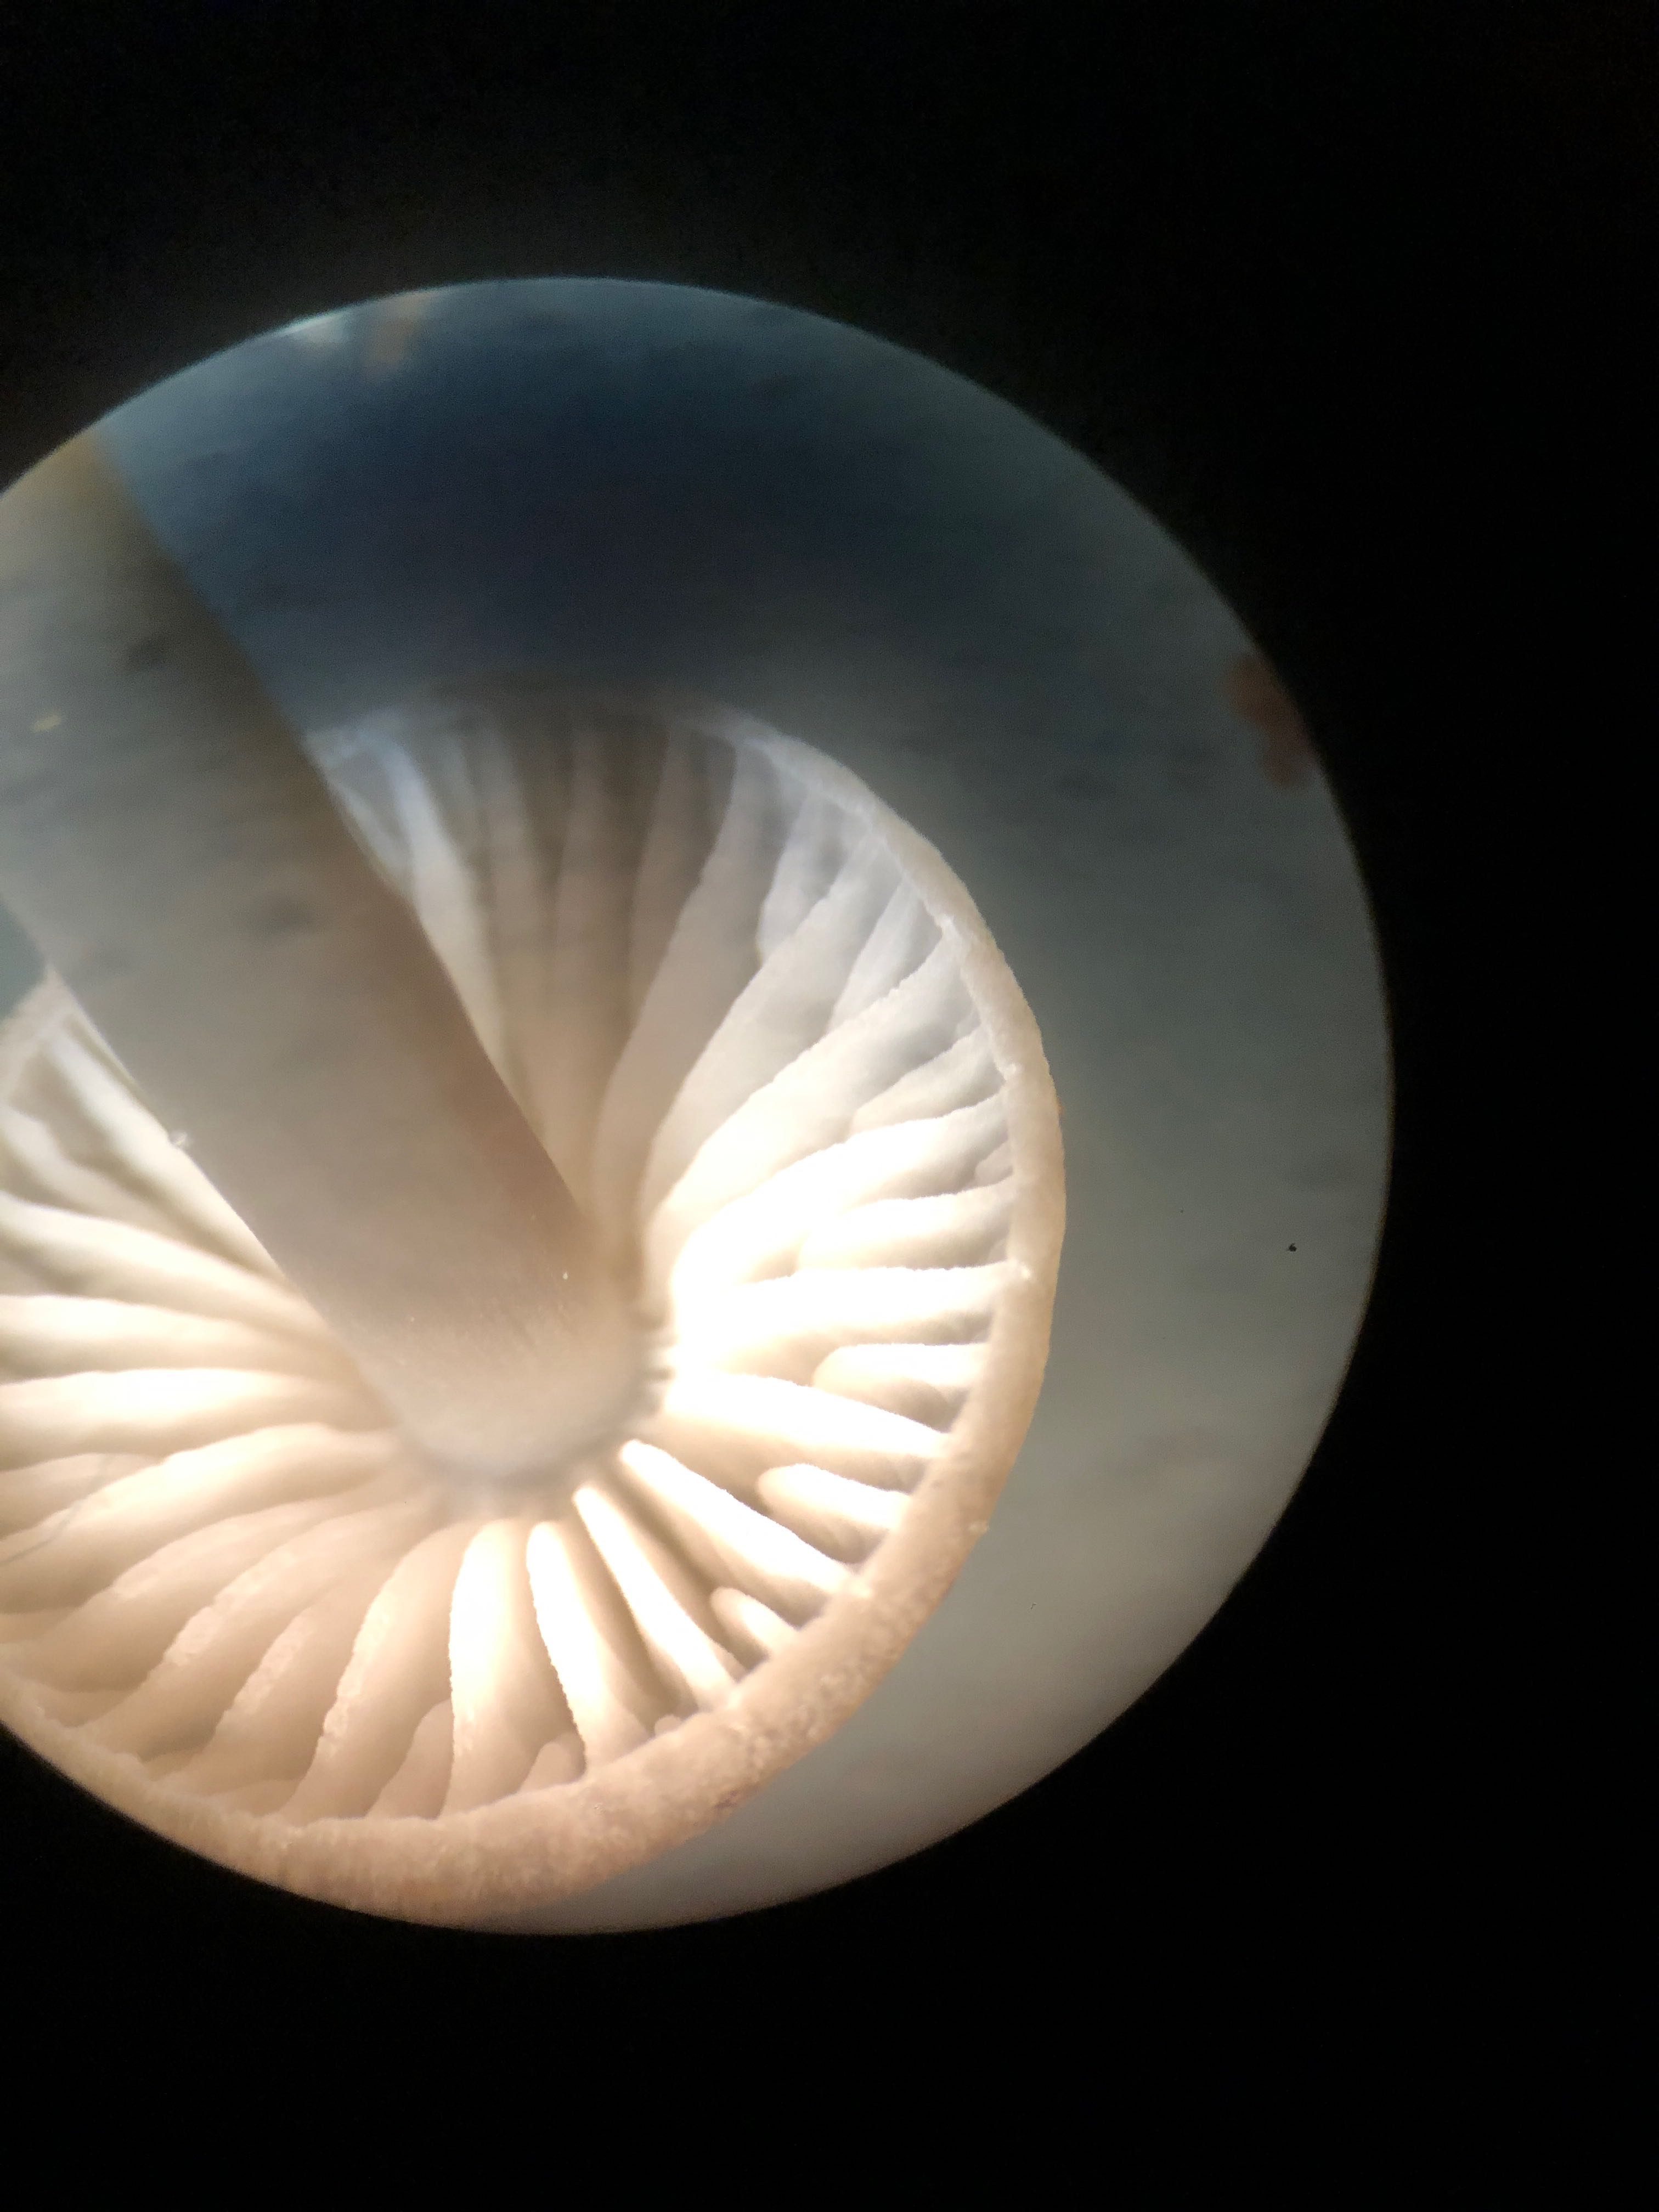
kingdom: Fungi
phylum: Basidiomycota
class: Agaricomycetes
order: Agaricales
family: Mycenaceae
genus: Mycena
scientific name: Mycena polygramma
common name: mangestribet huesvamp
